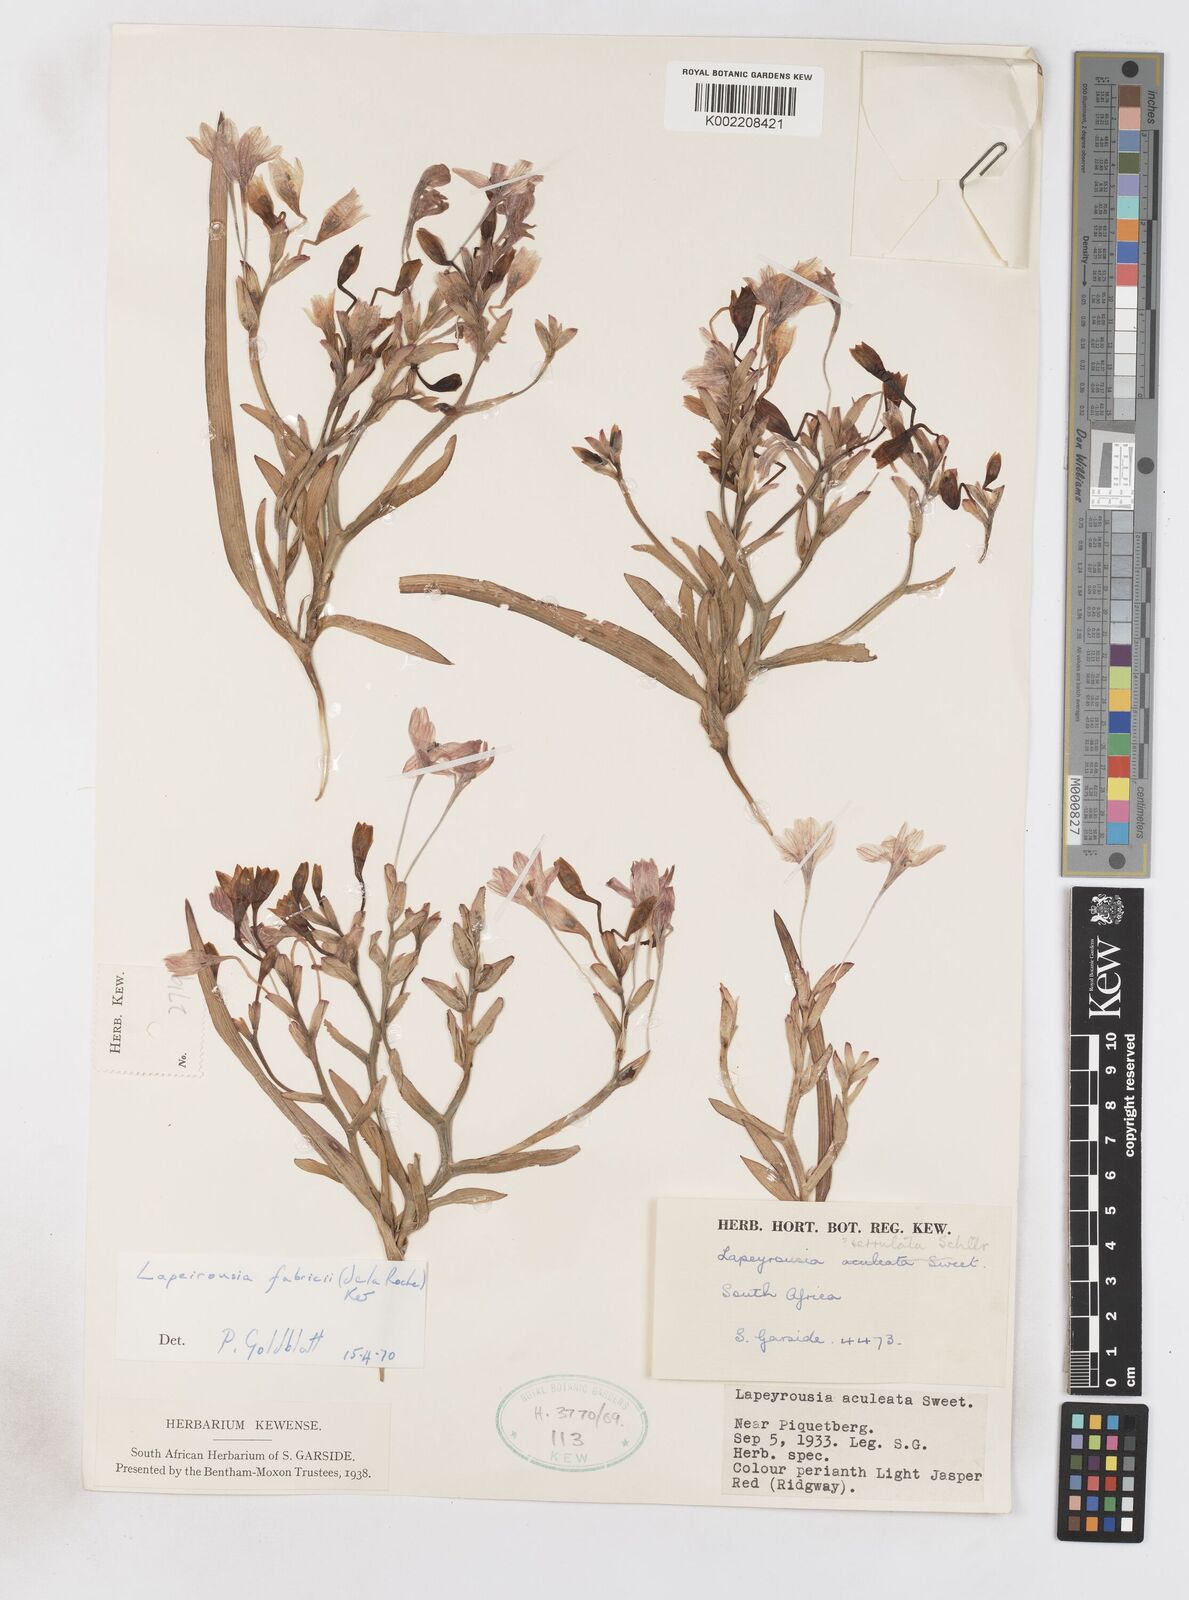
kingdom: Plantae
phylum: Tracheophyta
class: Liliopsida
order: Asparagales
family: Iridaceae
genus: Lapeirousia
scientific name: Lapeirousia fabricii
